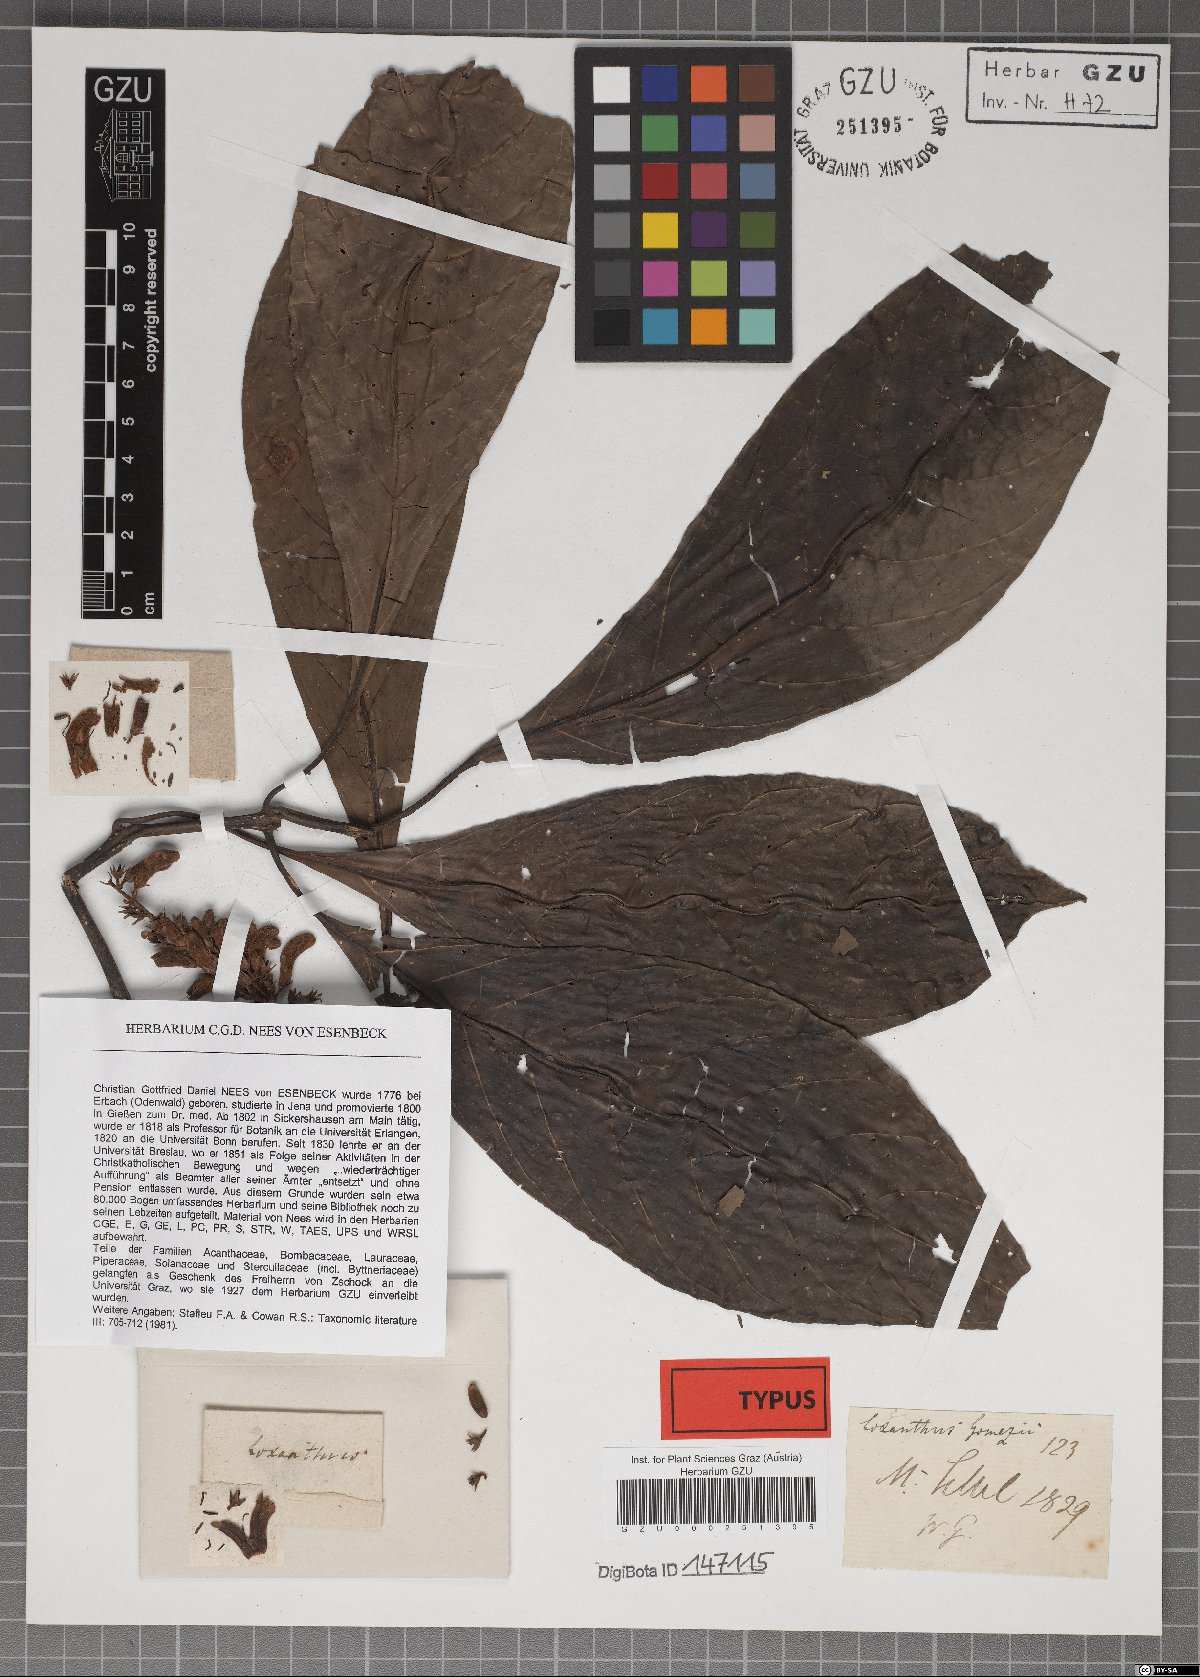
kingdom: Plantae
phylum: Tracheophyta
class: Magnoliopsida
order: Lamiales
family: Acanthaceae
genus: Phlogacanthus
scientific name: Phlogacanthus gomezii
